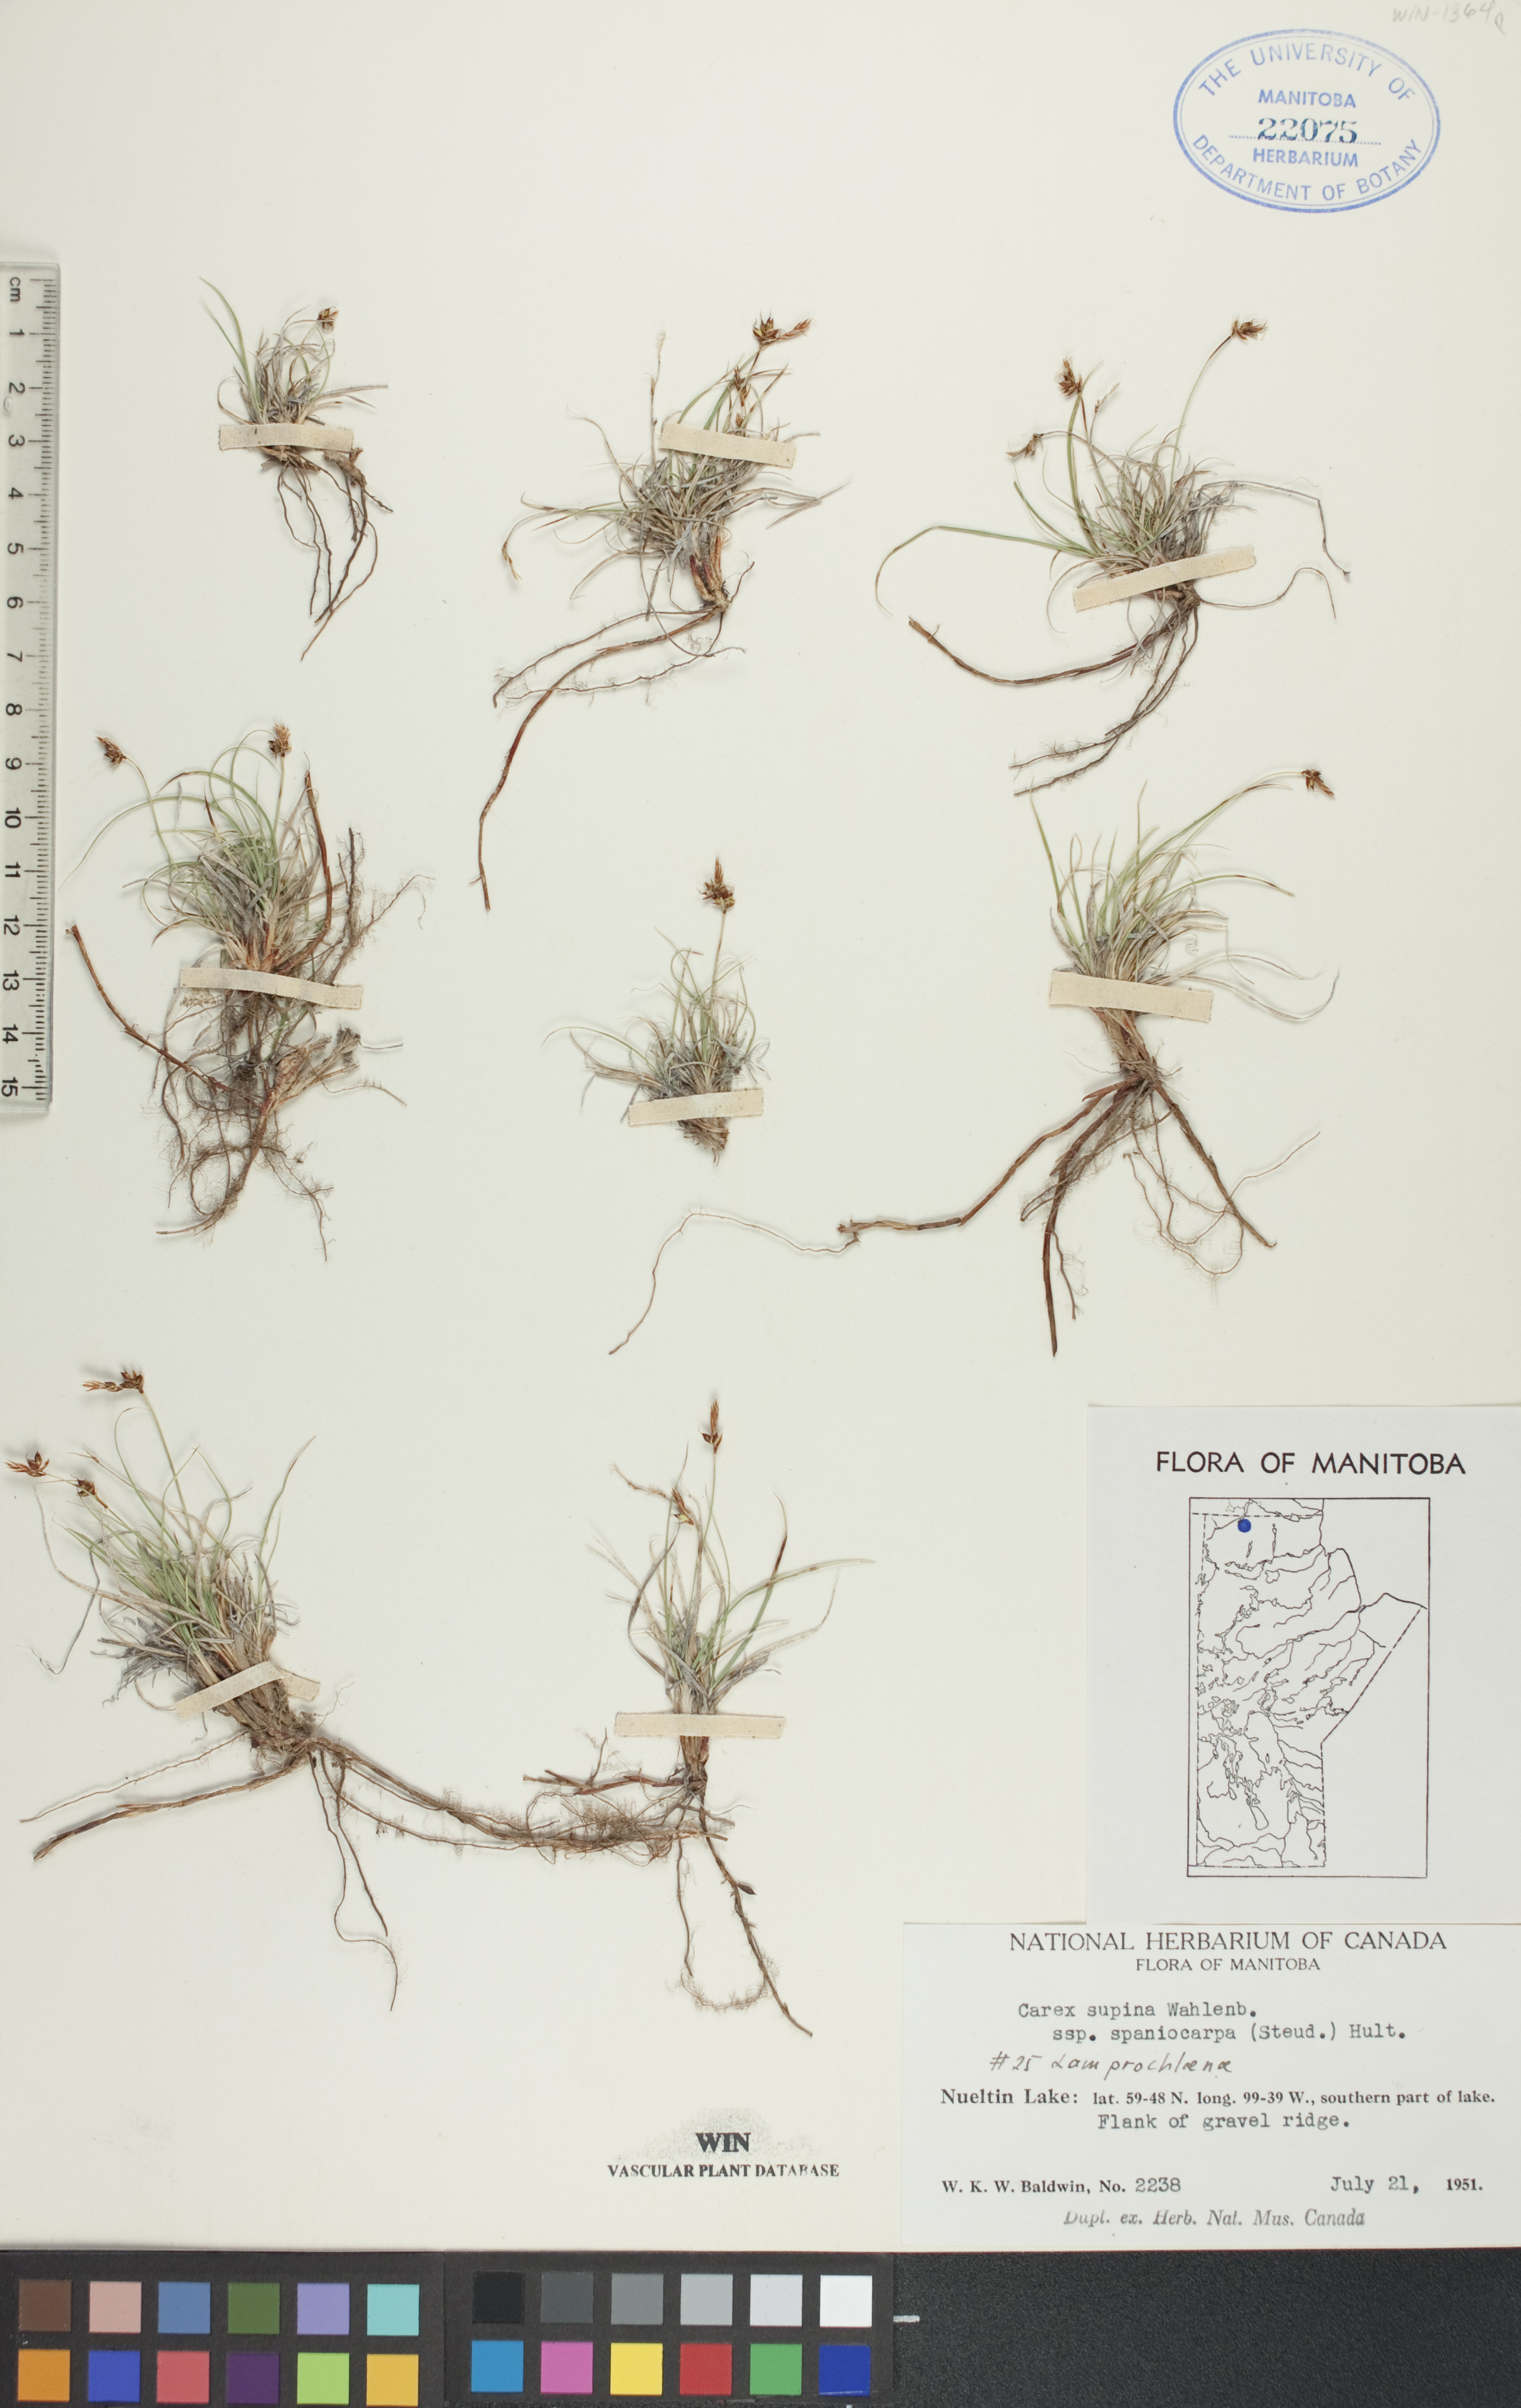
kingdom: Plantae
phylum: Tracheophyta
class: Liliopsida
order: Poales
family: Cyperaceae
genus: Carex
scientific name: Carex supina
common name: Lying-back sedge
